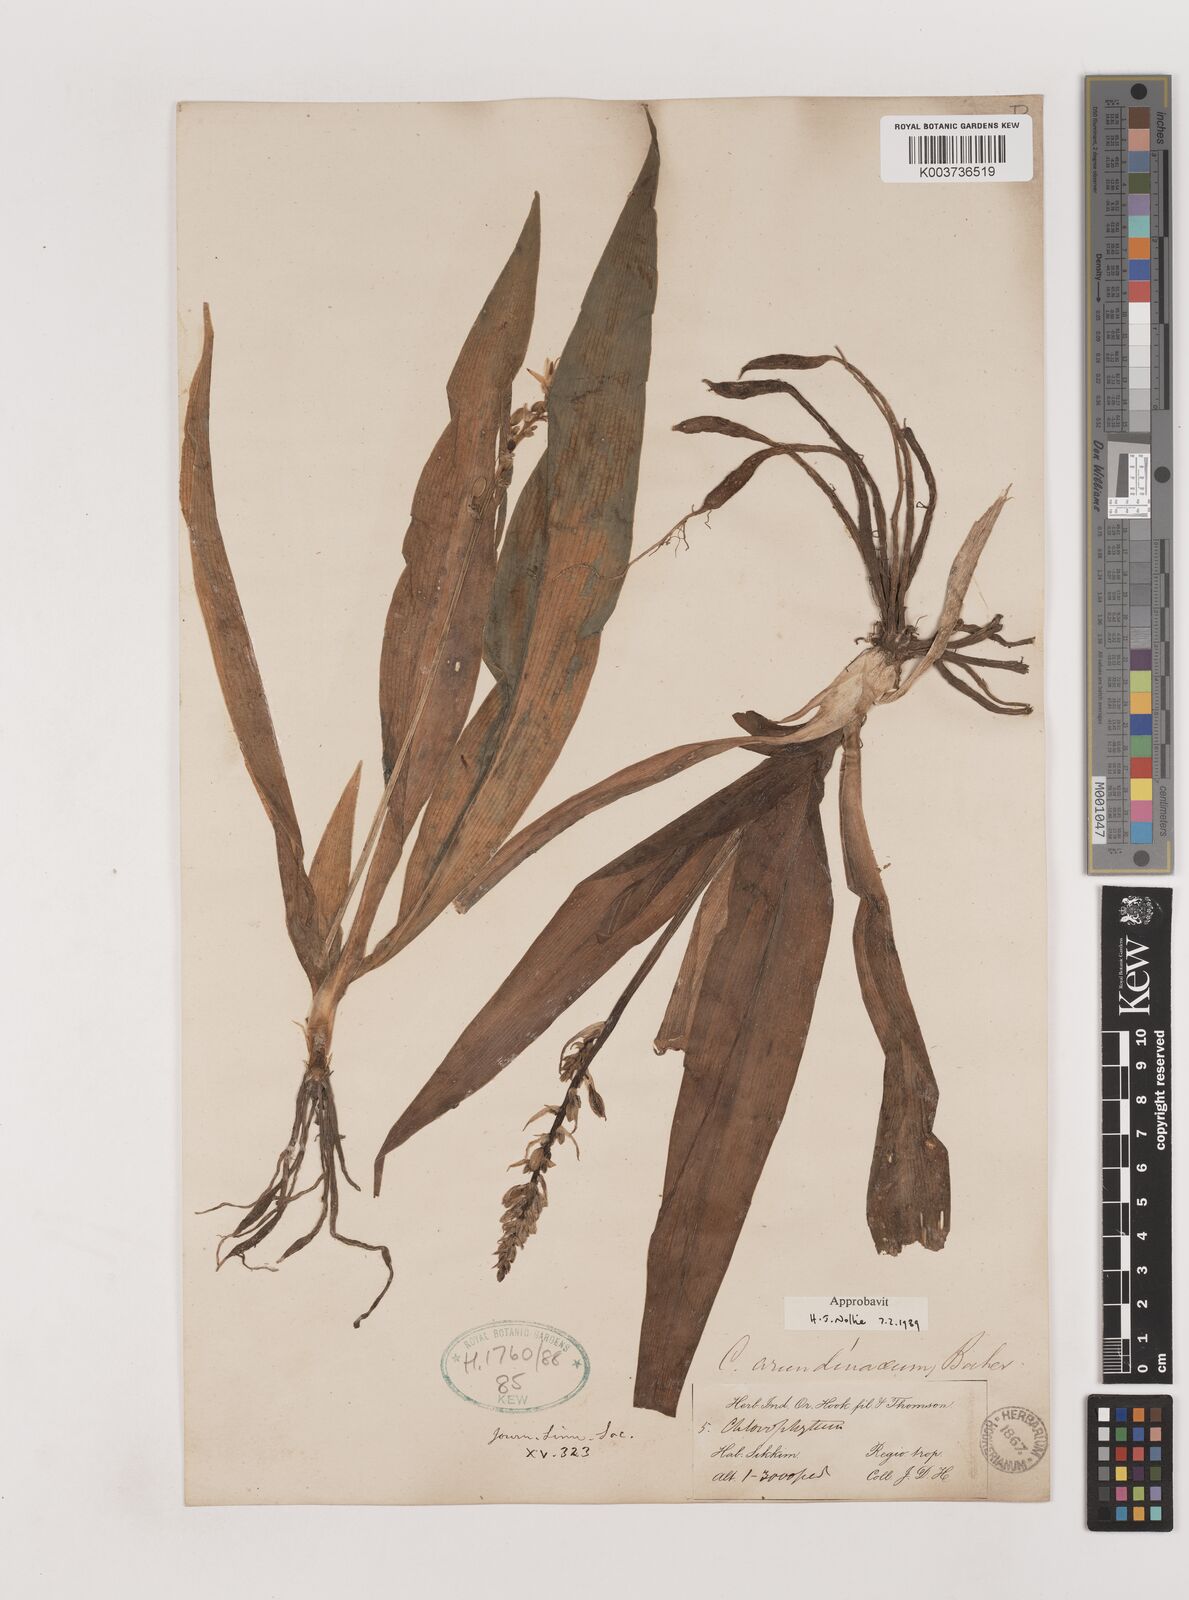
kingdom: Plantae
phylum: Tracheophyta
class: Liliopsida
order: Asparagales
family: Asparagaceae
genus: Chlorophytum
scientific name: Chlorophytum arundinaceum
